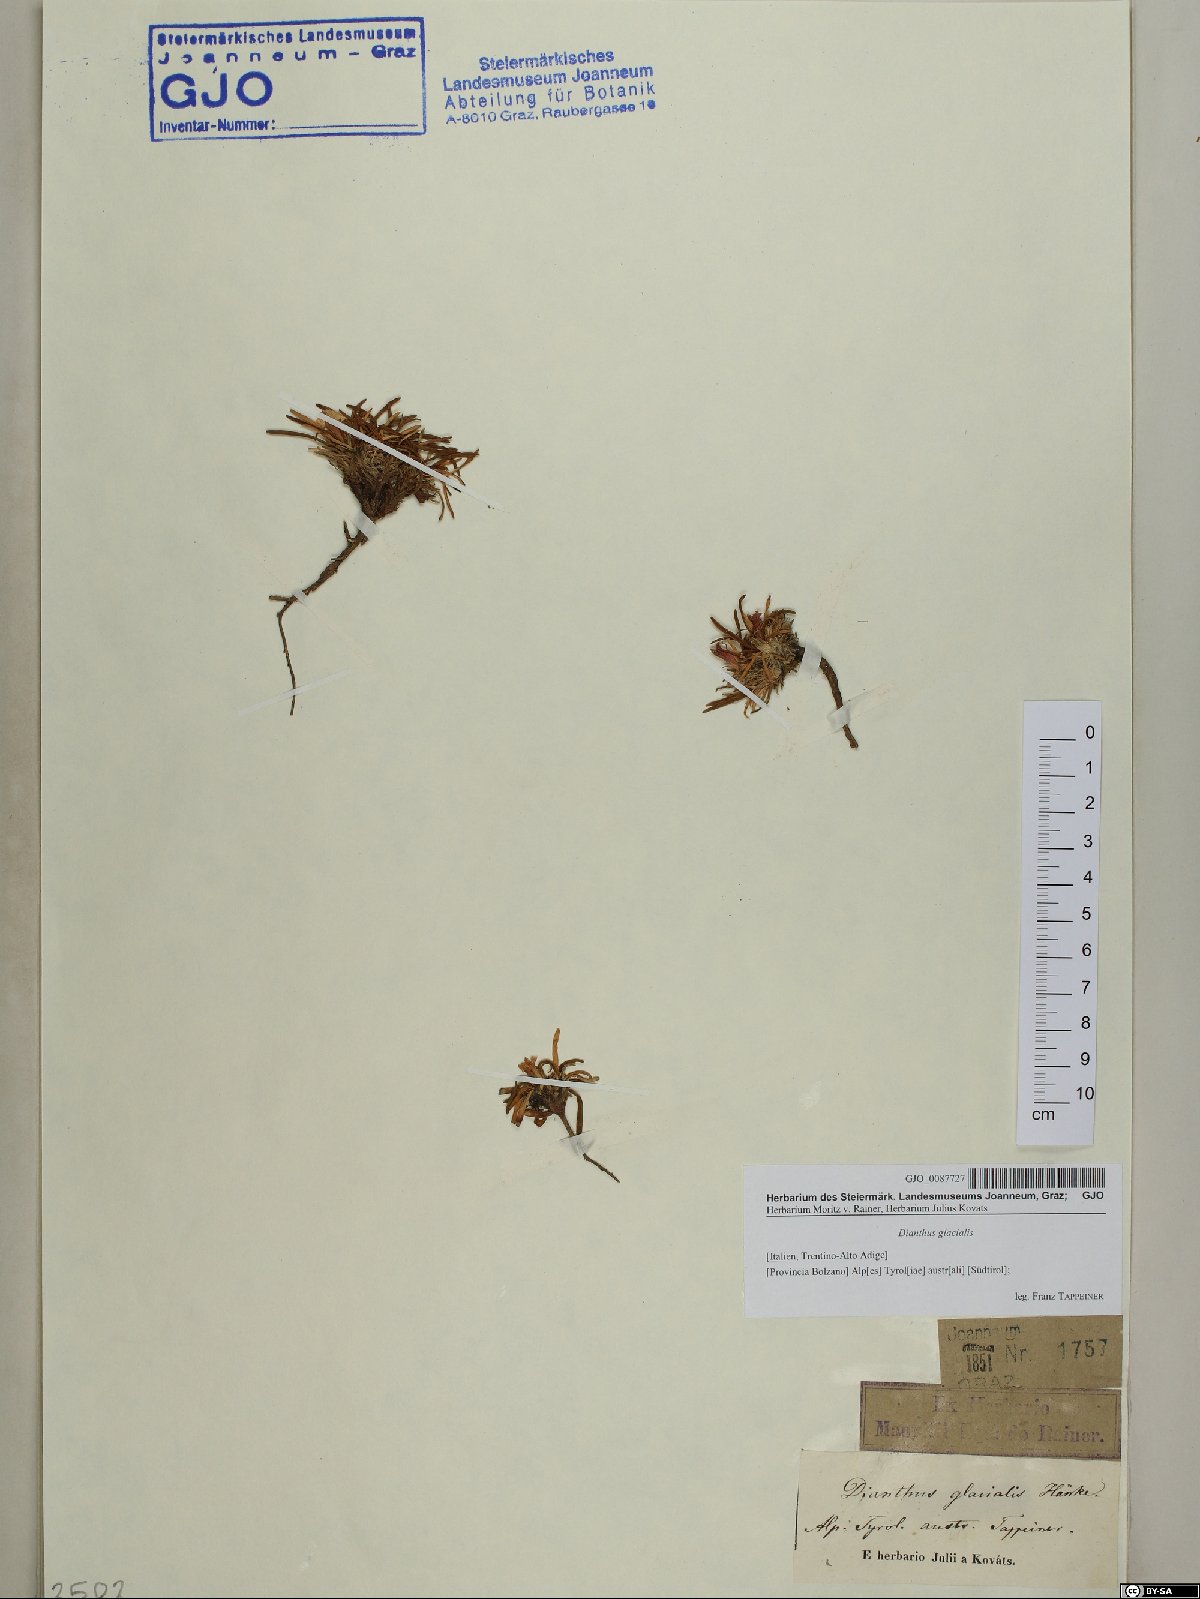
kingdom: Plantae
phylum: Tracheophyta
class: Magnoliopsida
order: Caryophyllales
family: Caryophyllaceae
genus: Dianthus
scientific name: Dianthus glacialis
